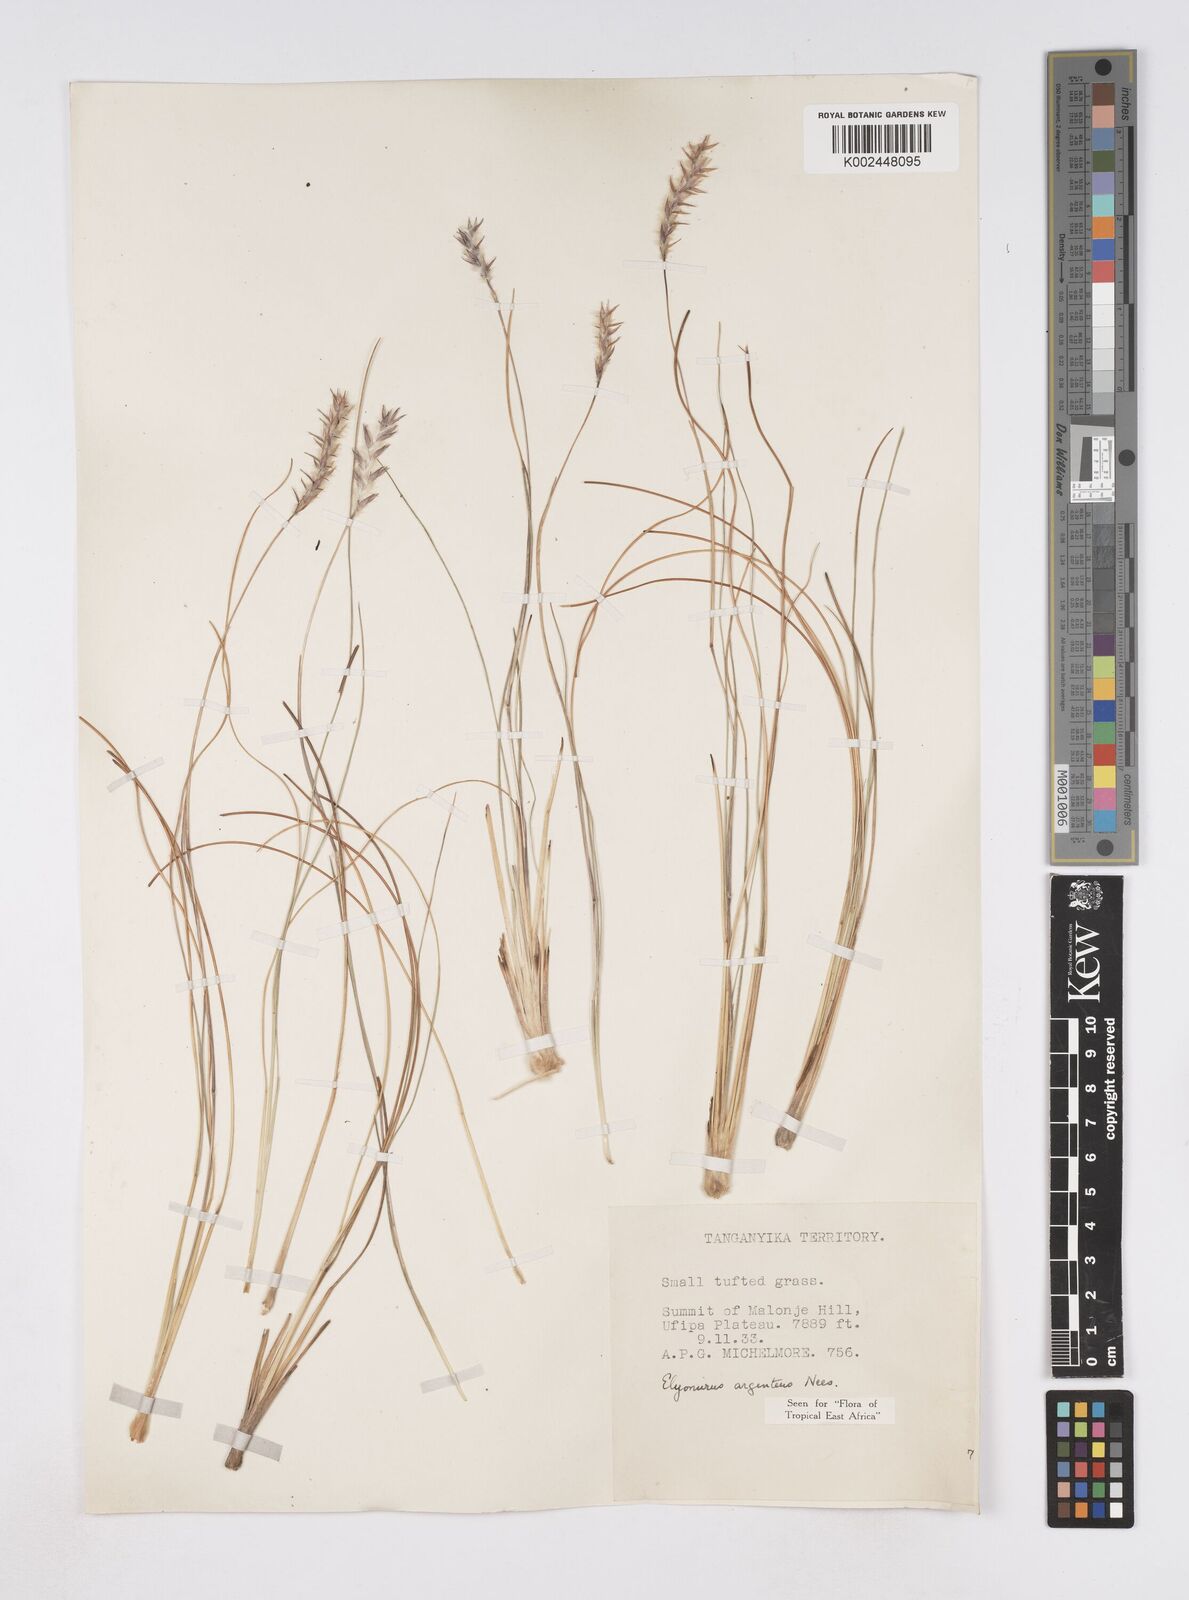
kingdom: Plantae
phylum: Tracheophyta
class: Liliopsida
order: Poales
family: Poaceae
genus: Elionurus
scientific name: Elionurus
